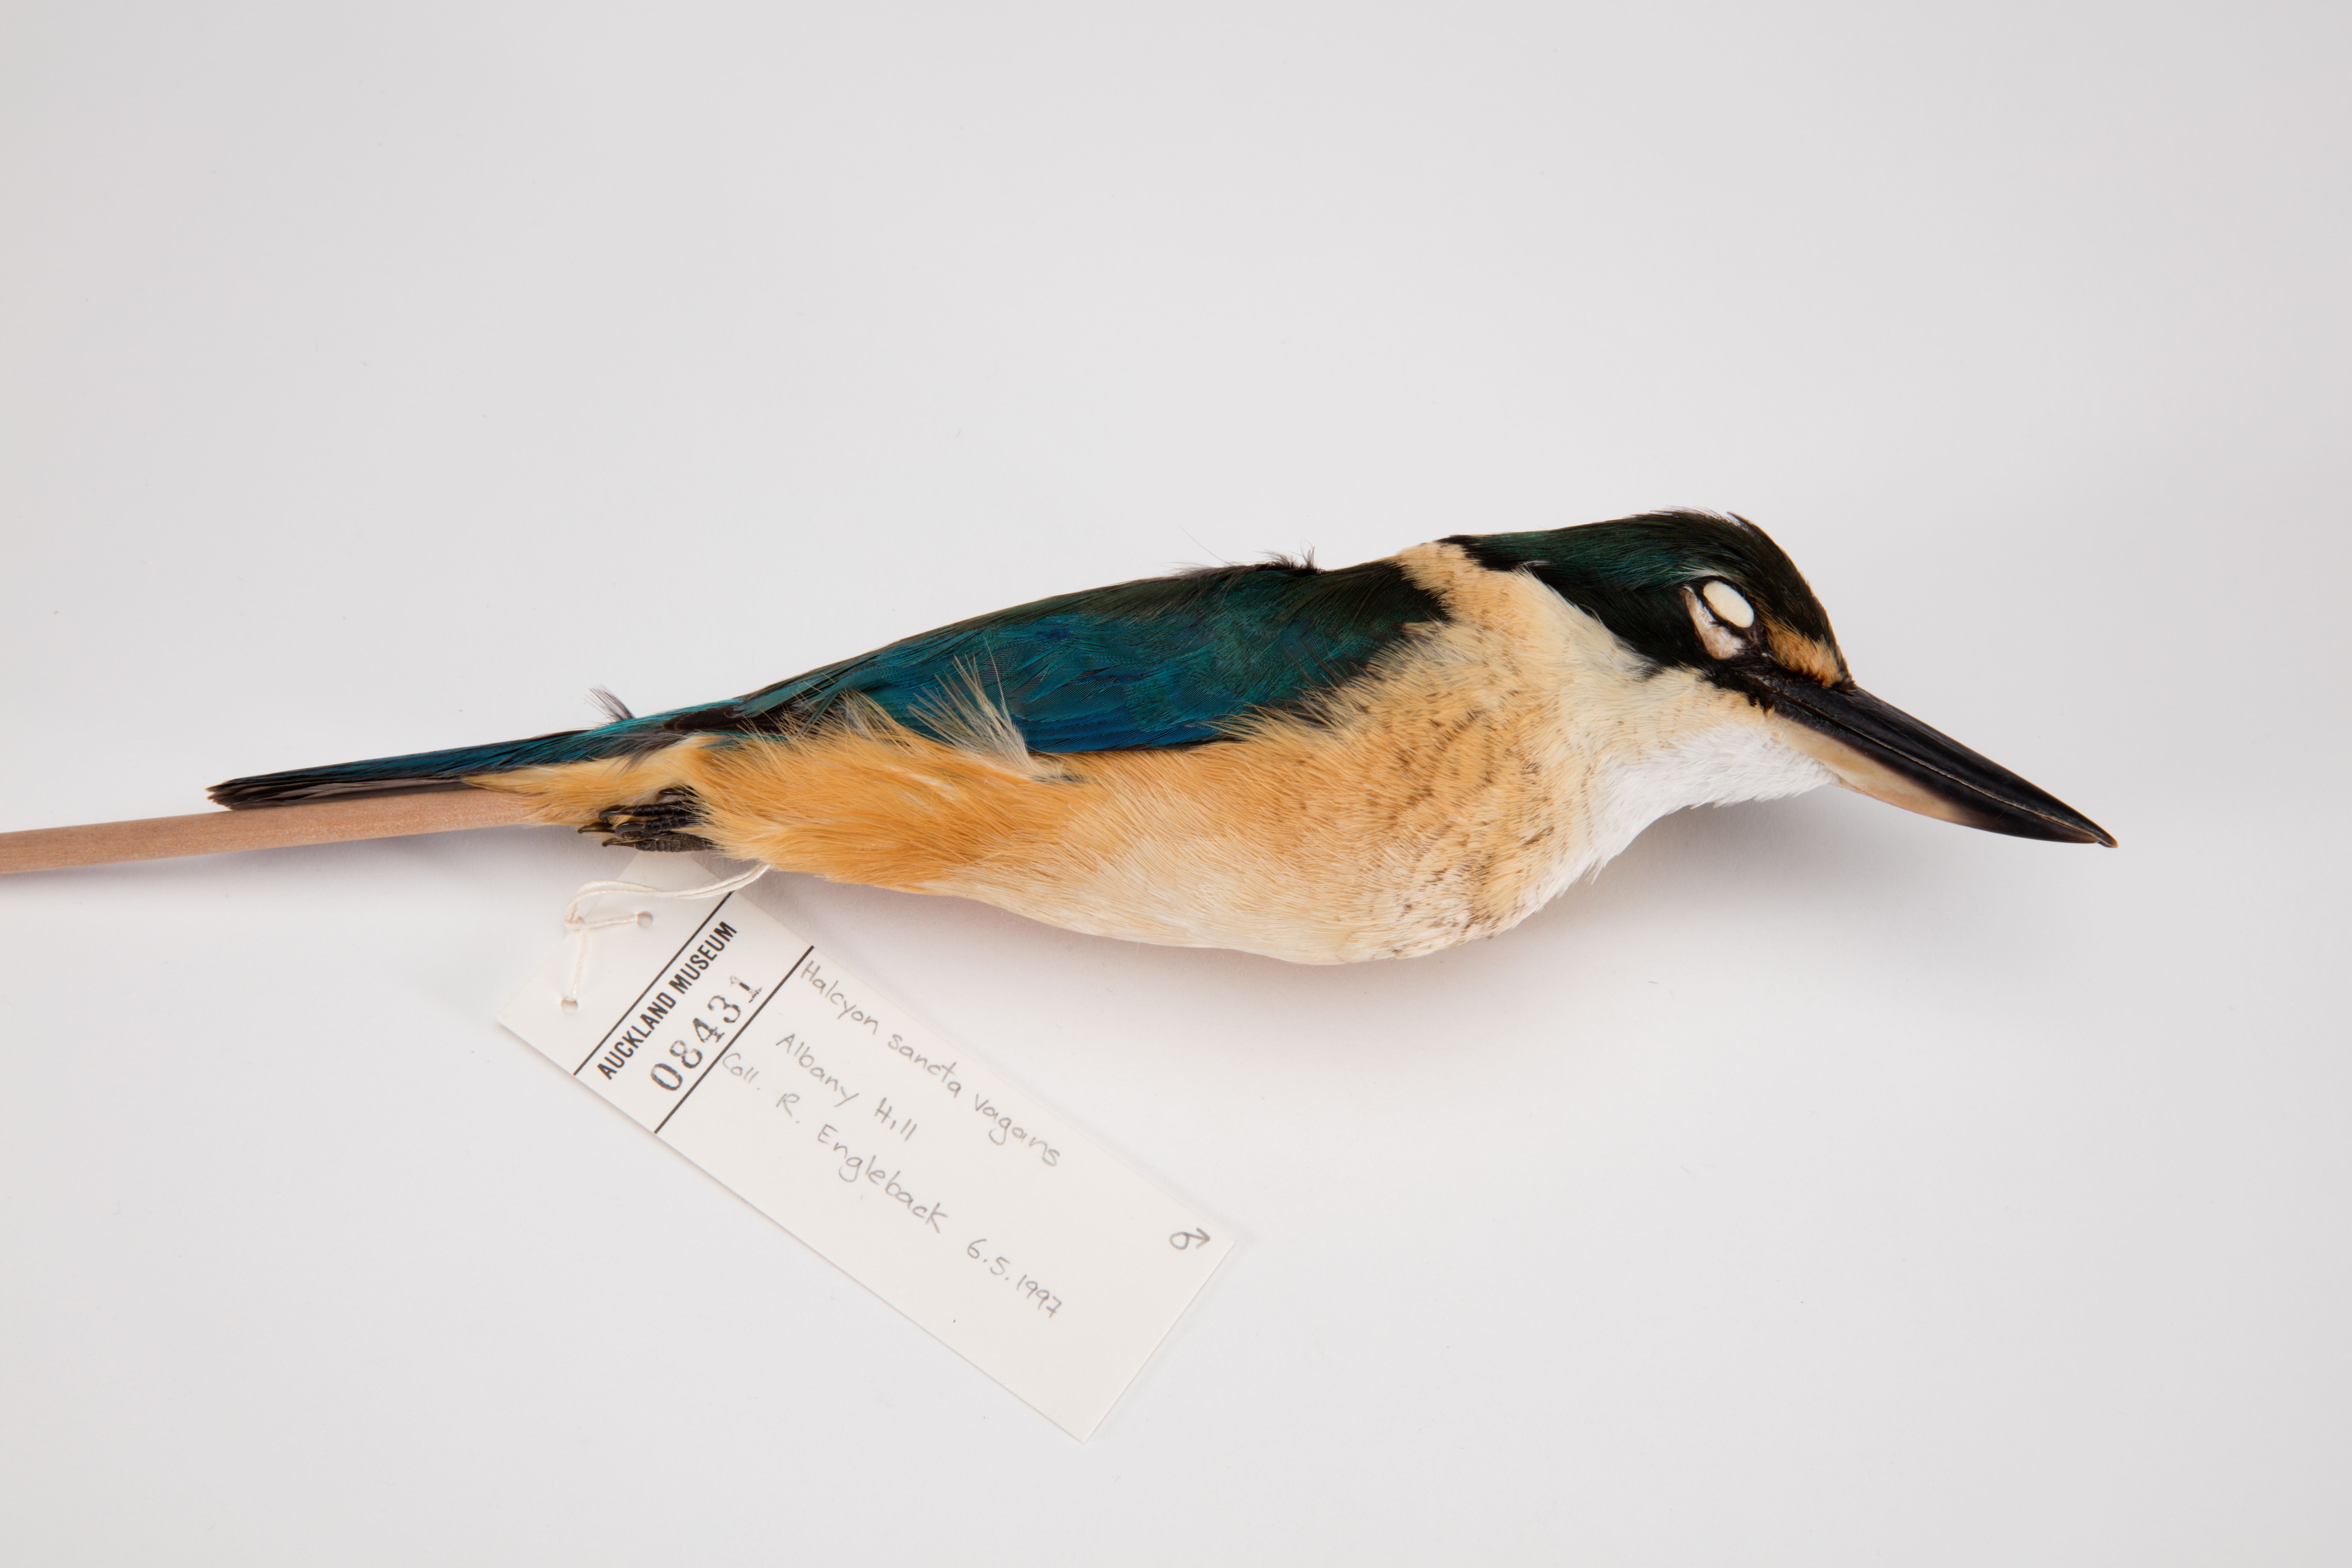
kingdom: Animalia
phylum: Chordata
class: Aves
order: Coraciiformes
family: Alcedinidae
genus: Todiramphus
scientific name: Todiramphus sanctus
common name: Sacred kingfisher
